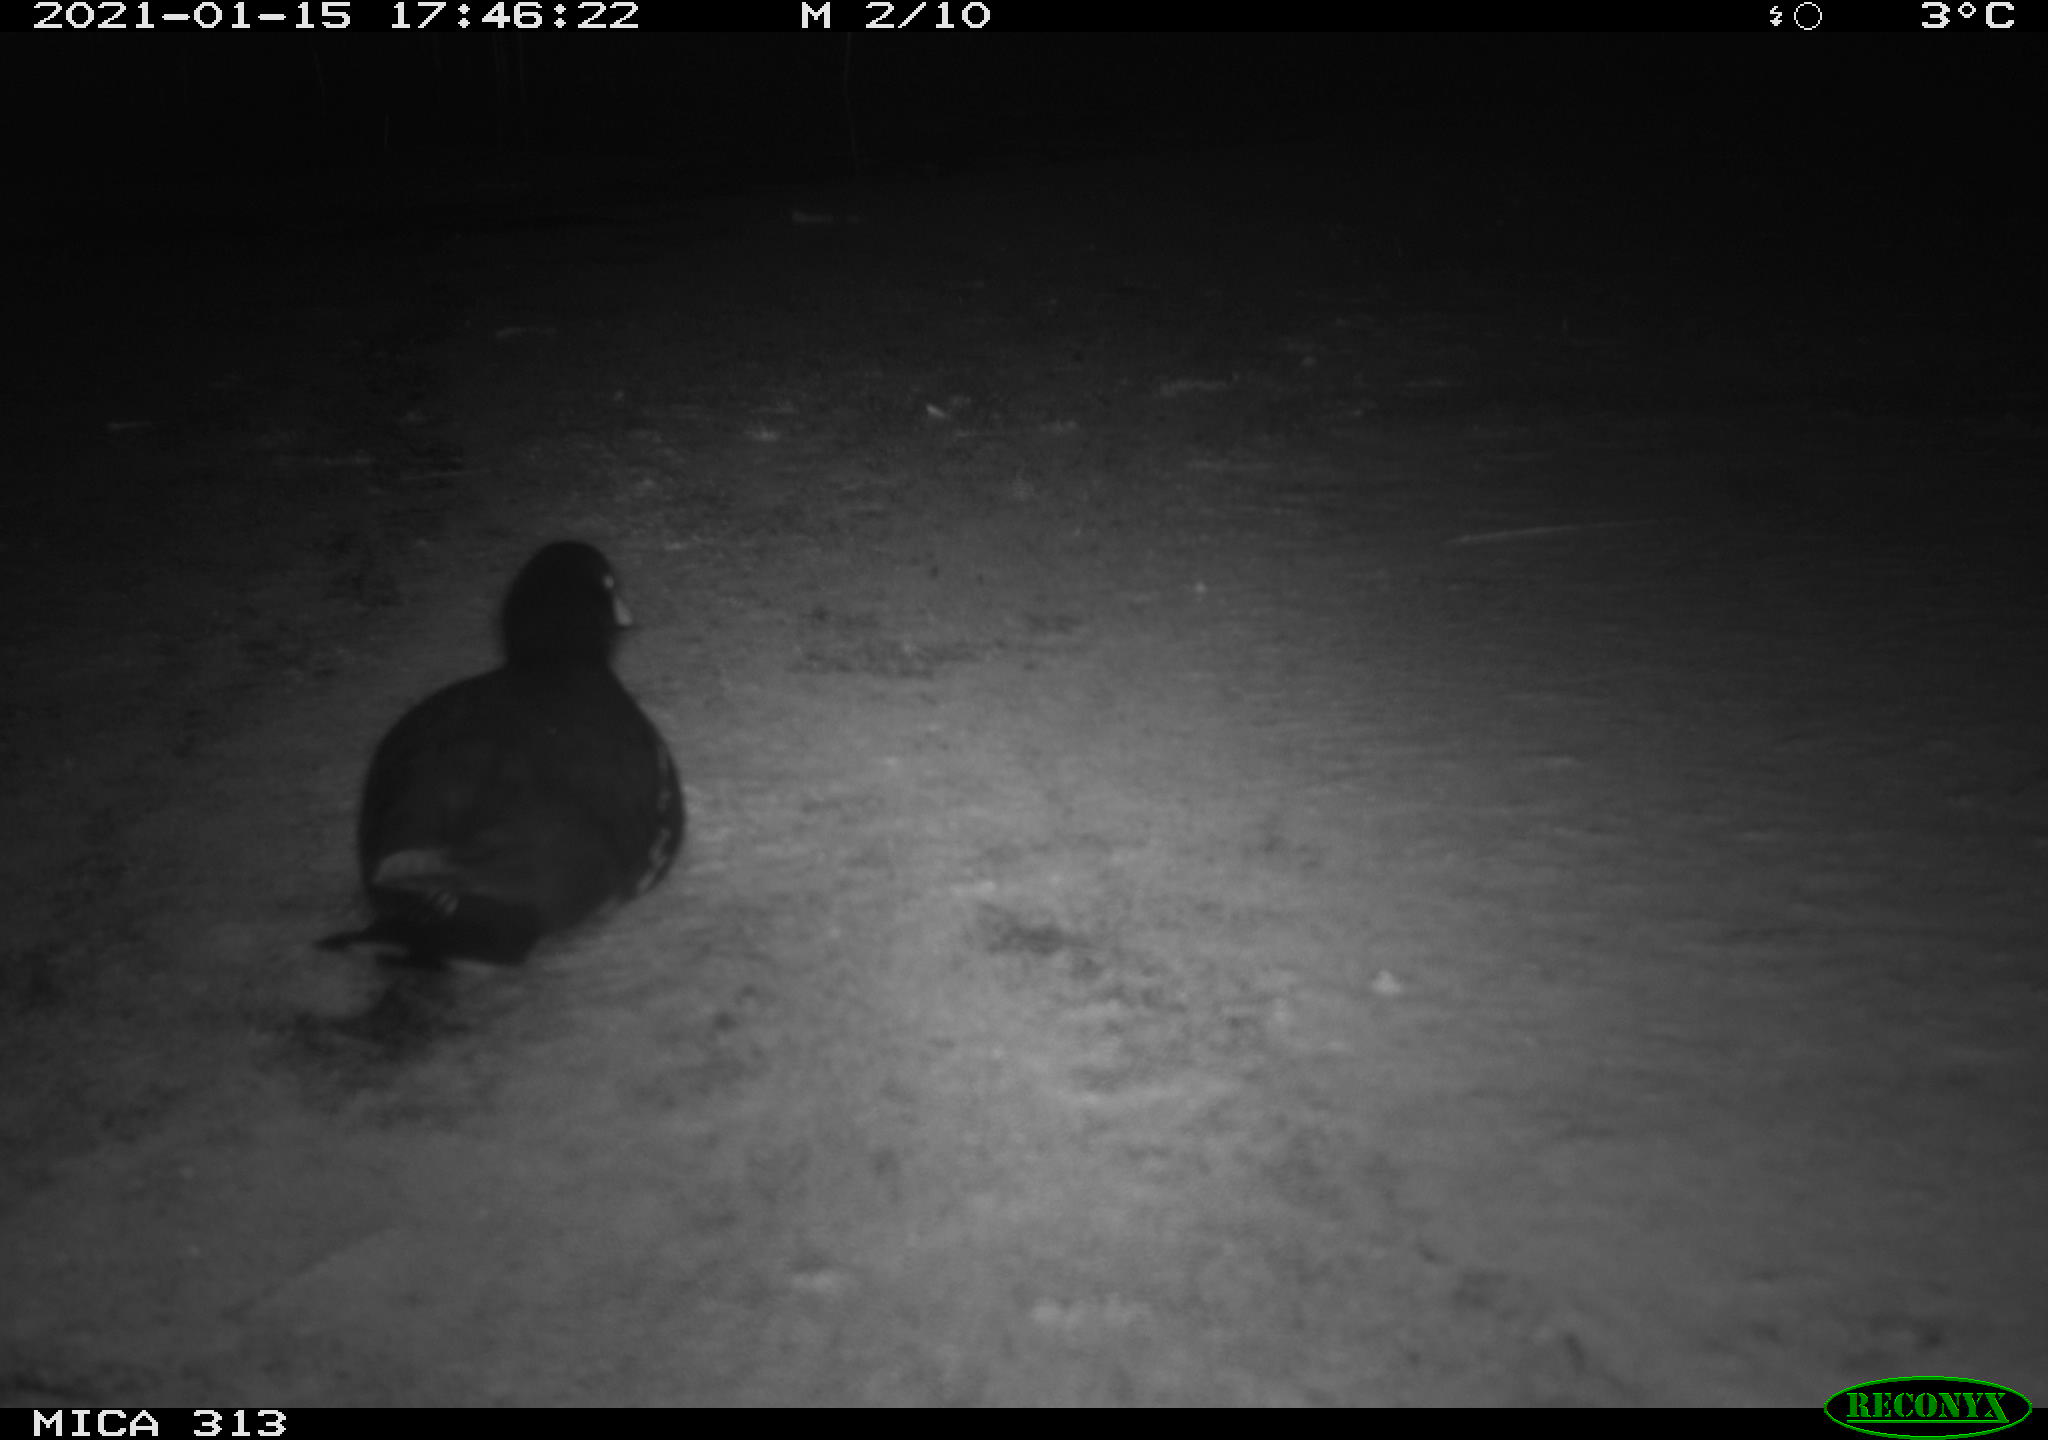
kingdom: Animalia
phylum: Chordata
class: Aves
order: Gruiformes
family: Rallidae
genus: Fulica
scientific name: Fulica atra
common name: Eurasian coot
